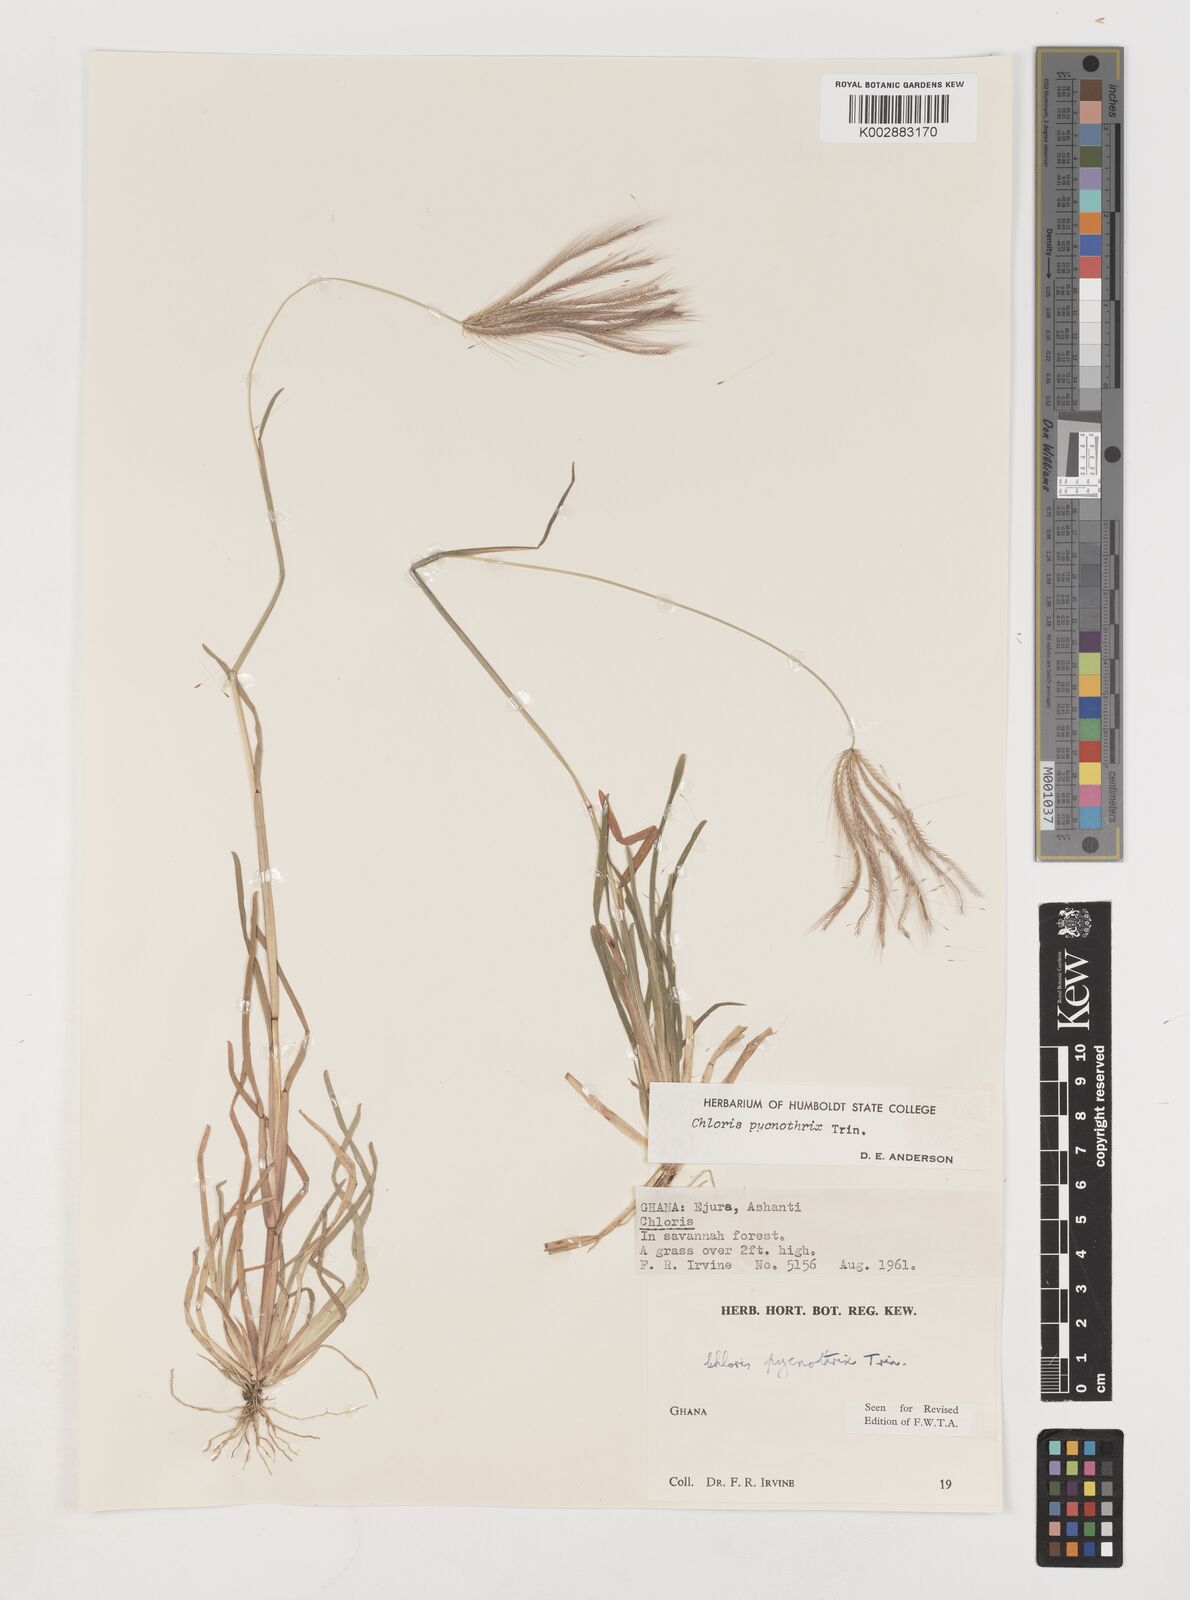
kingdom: Plantae
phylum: Tracheophyta
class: Liliopsida
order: Poales
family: Poaceae
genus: Chloris
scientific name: Chloris pycnothrix
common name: Spiderweb chloris
